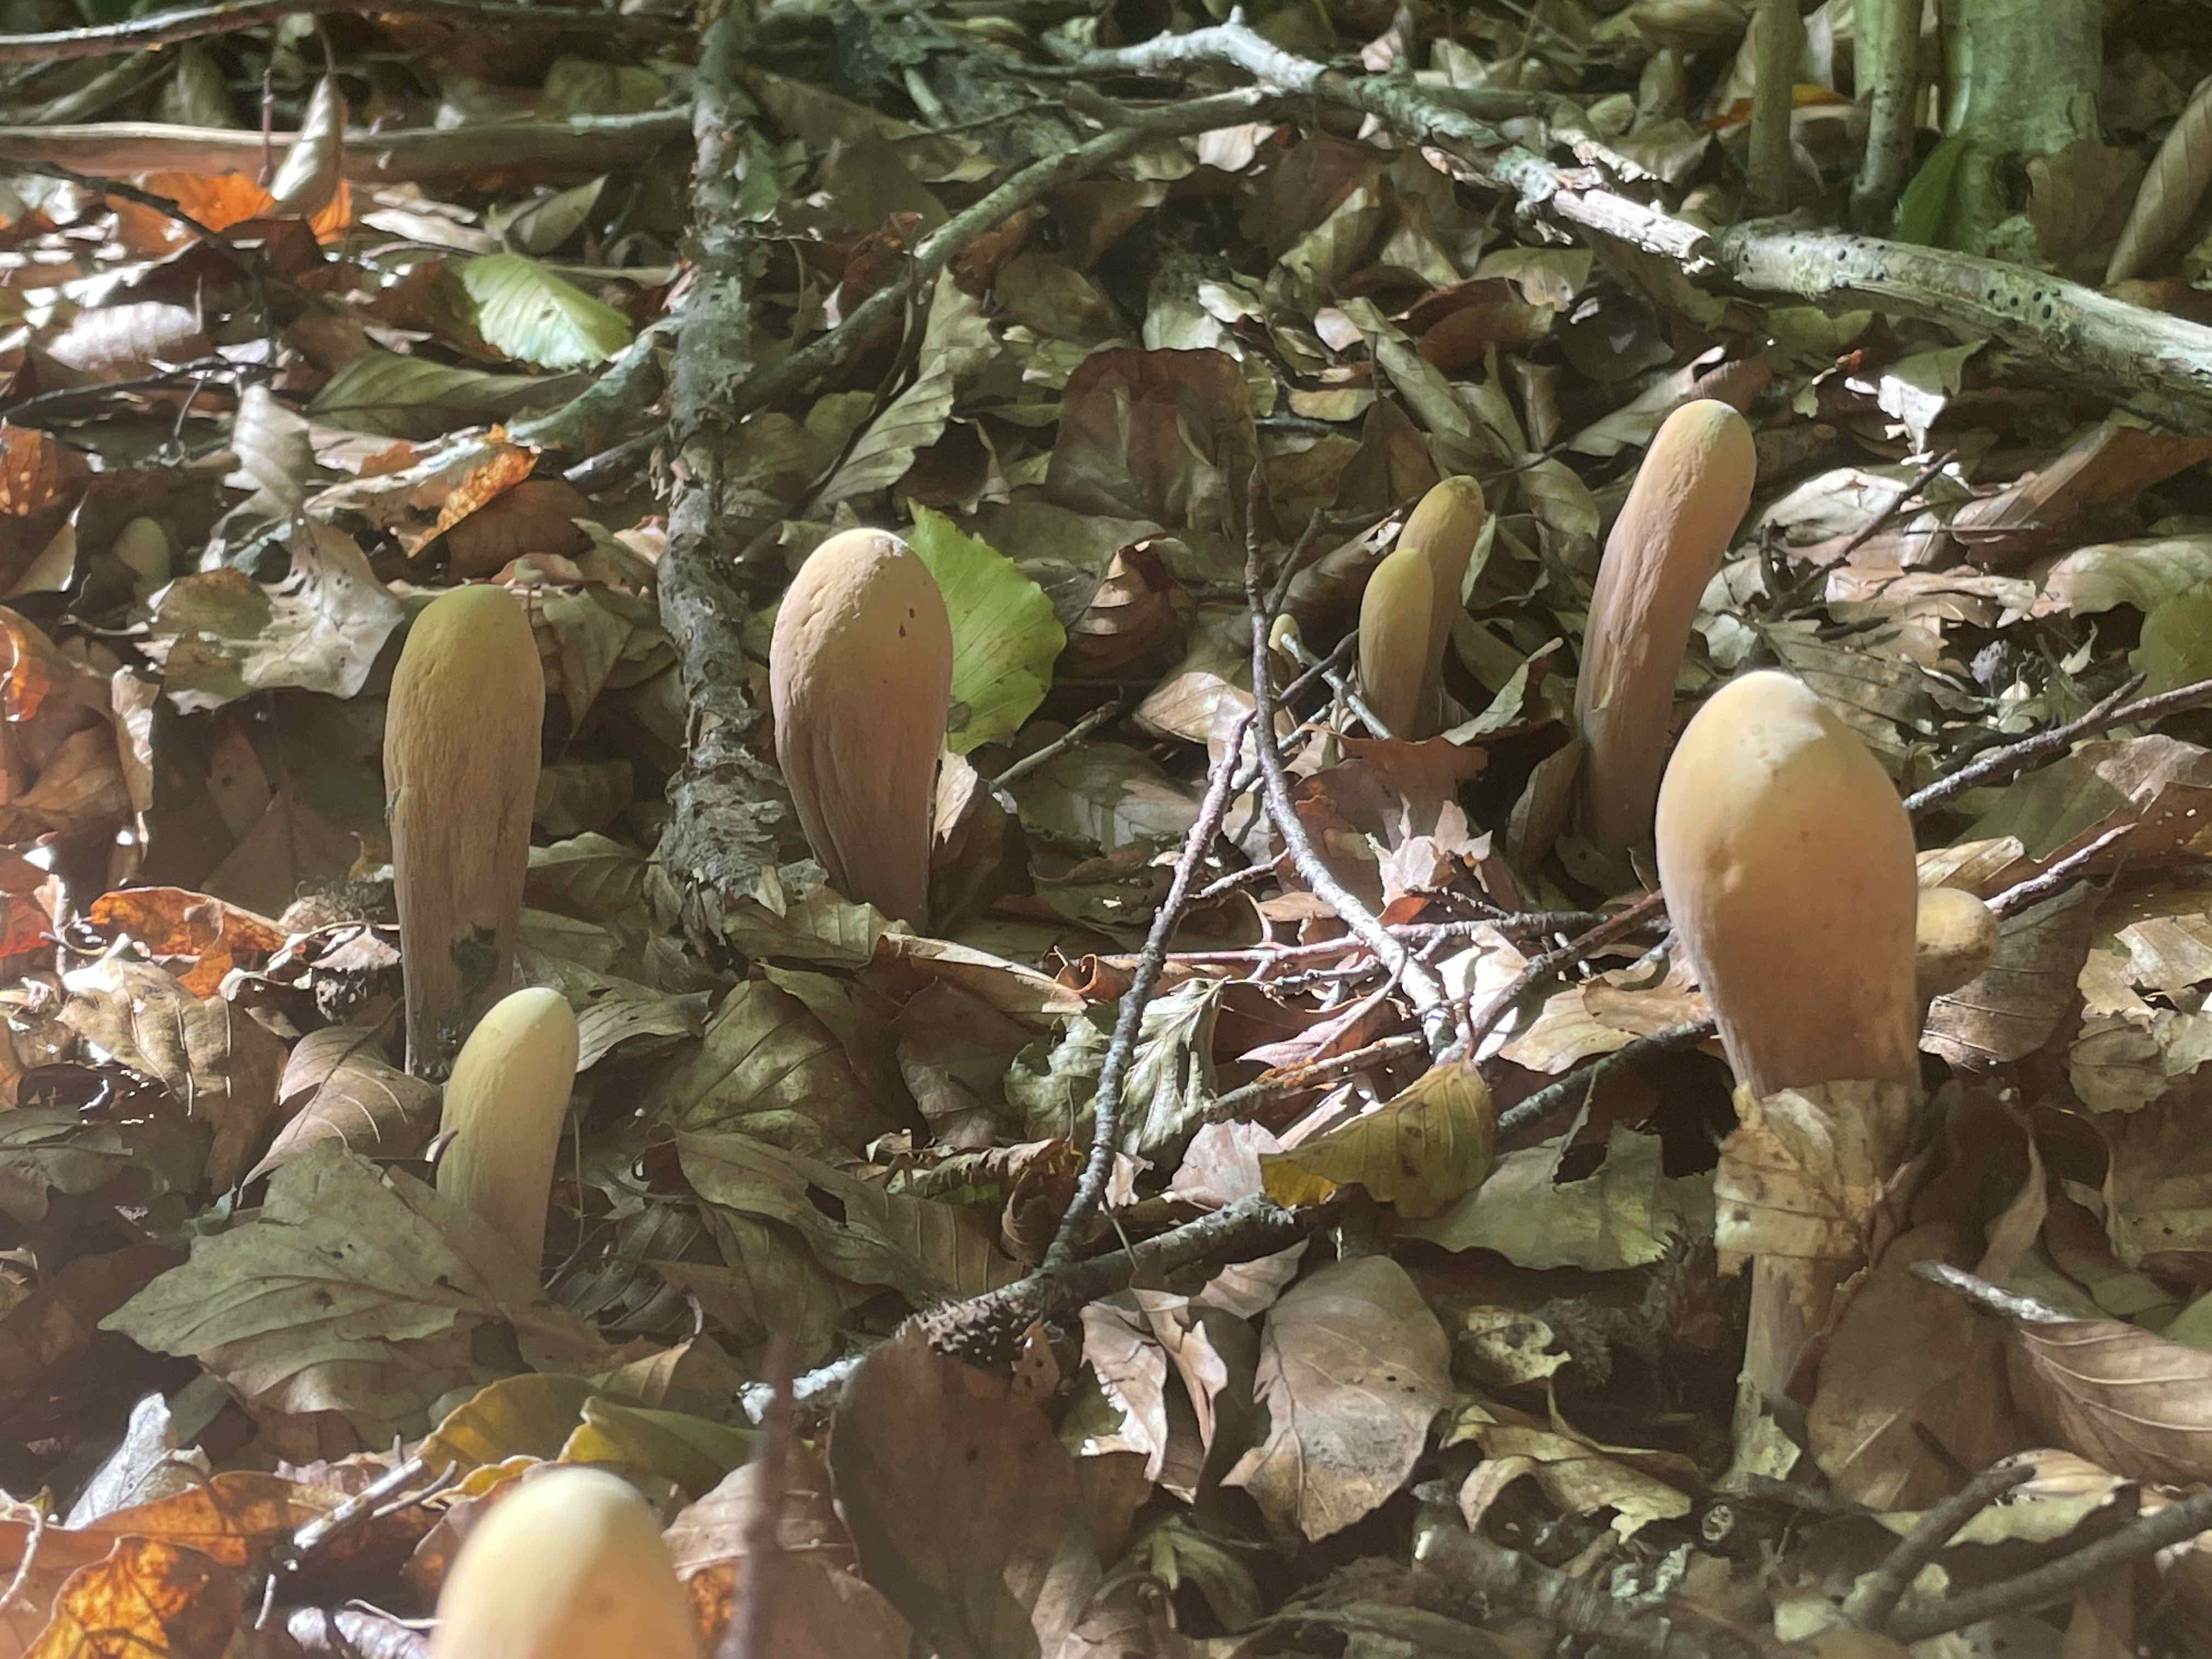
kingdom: Fungi
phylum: Basidiomycota
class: Agaricomycetes
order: Gomphales
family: Clavariadelphaceae
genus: Clavariadelphus
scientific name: Clavariadelphus pistillaris
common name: herkules-kæmpekølle
